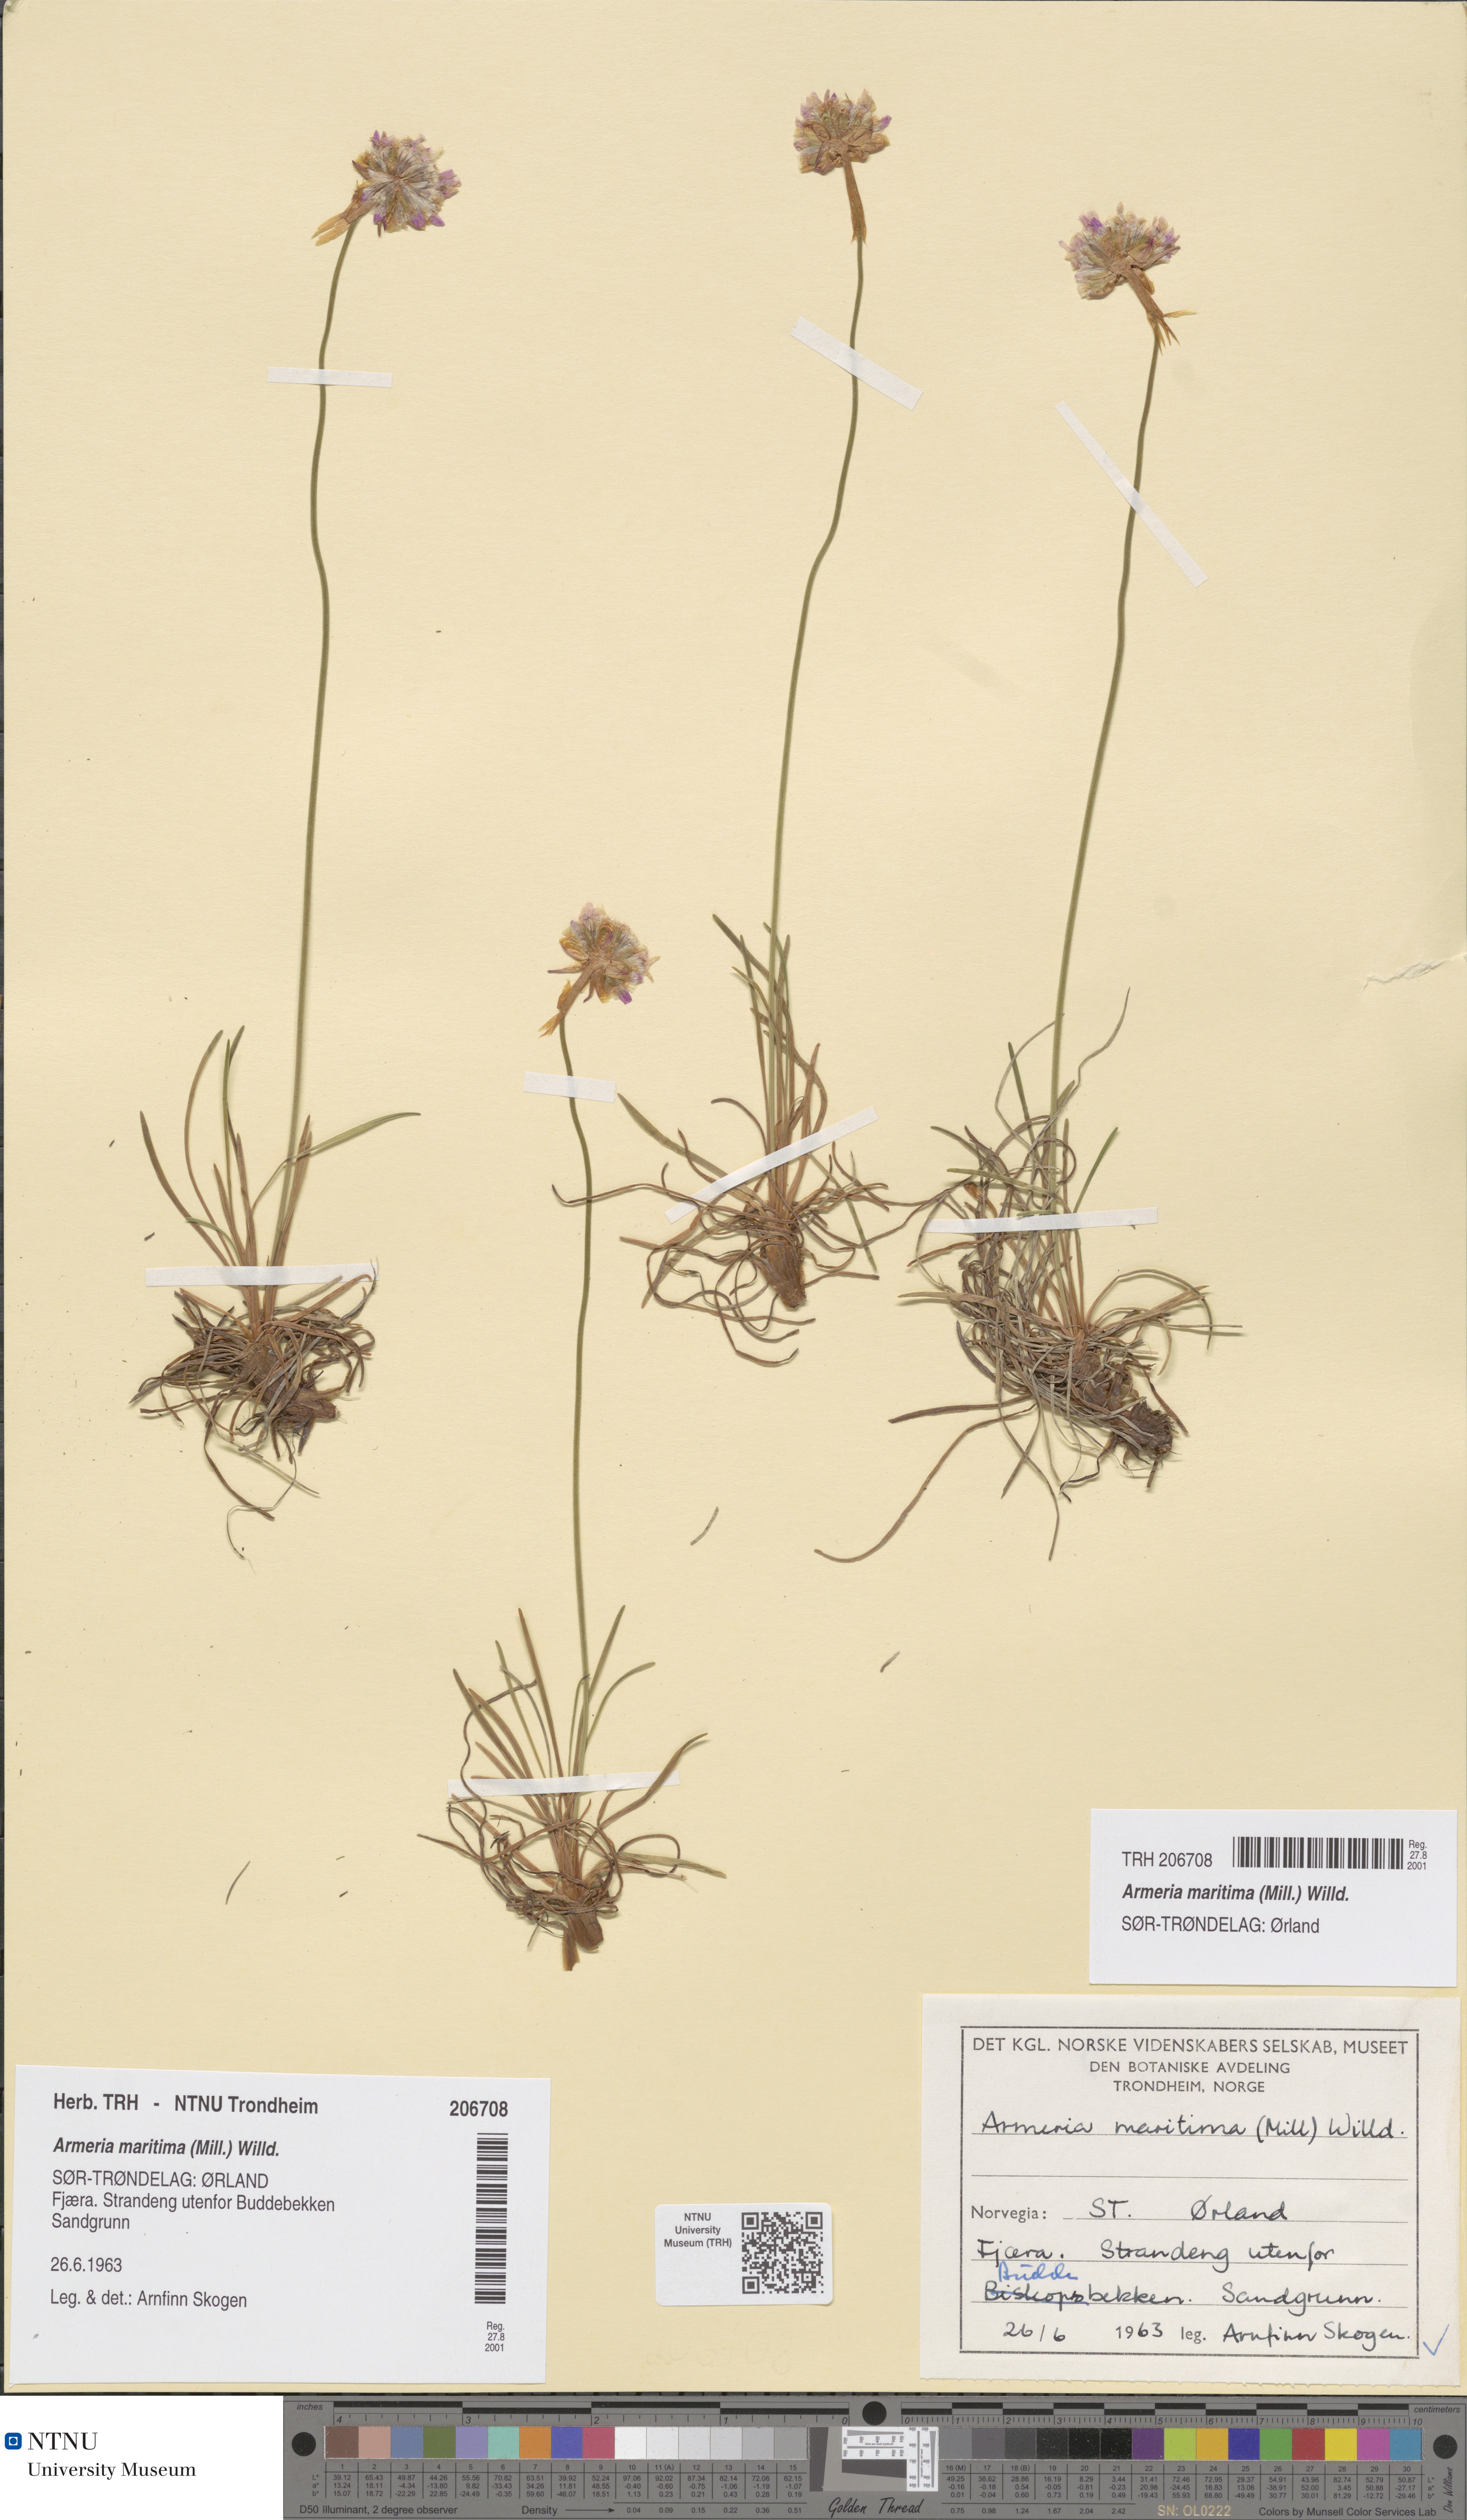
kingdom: Plantae
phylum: Tracheophyta
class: Magnoliopsida
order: Caryophyllales
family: Plumbaginaceae
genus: Armeria
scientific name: Armeria maritima
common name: Thrift
